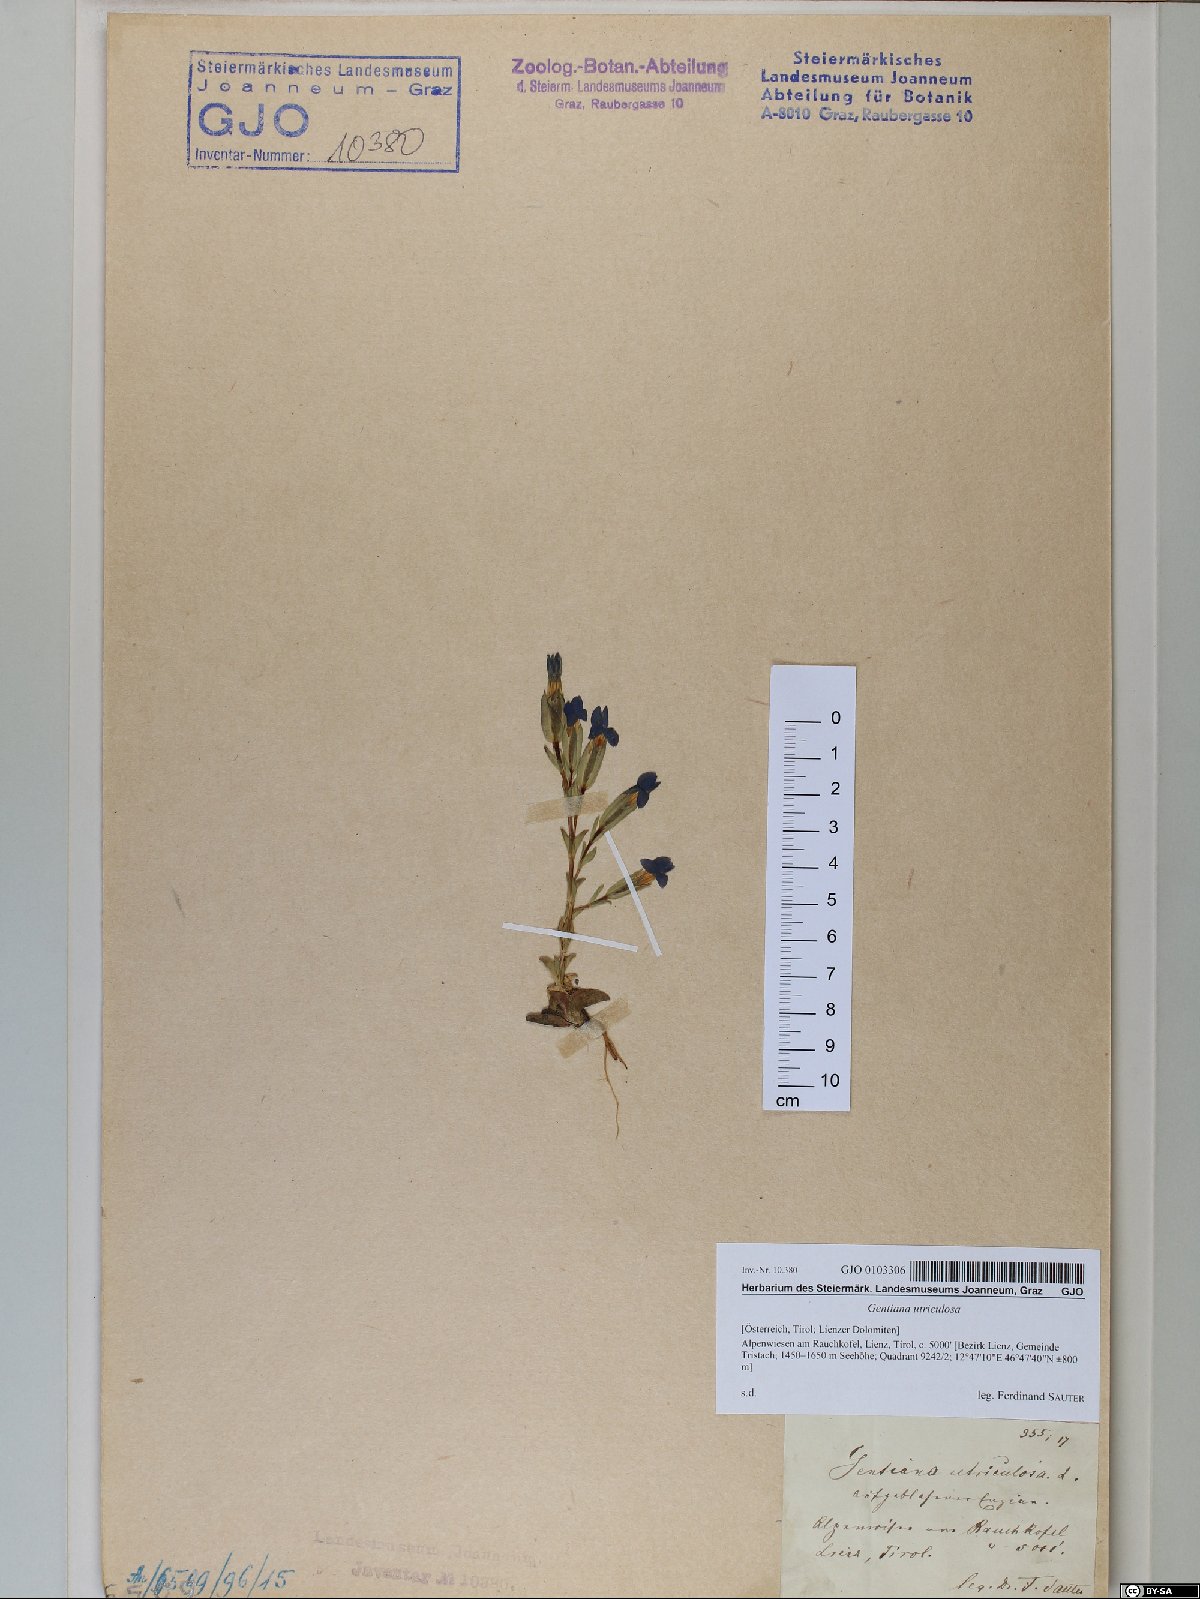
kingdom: Plantae
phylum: Tracheophyta
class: Magnoliopsida
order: Gentianales
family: Gentianaceae
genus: Gentiana
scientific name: Gentiana utriculosa
